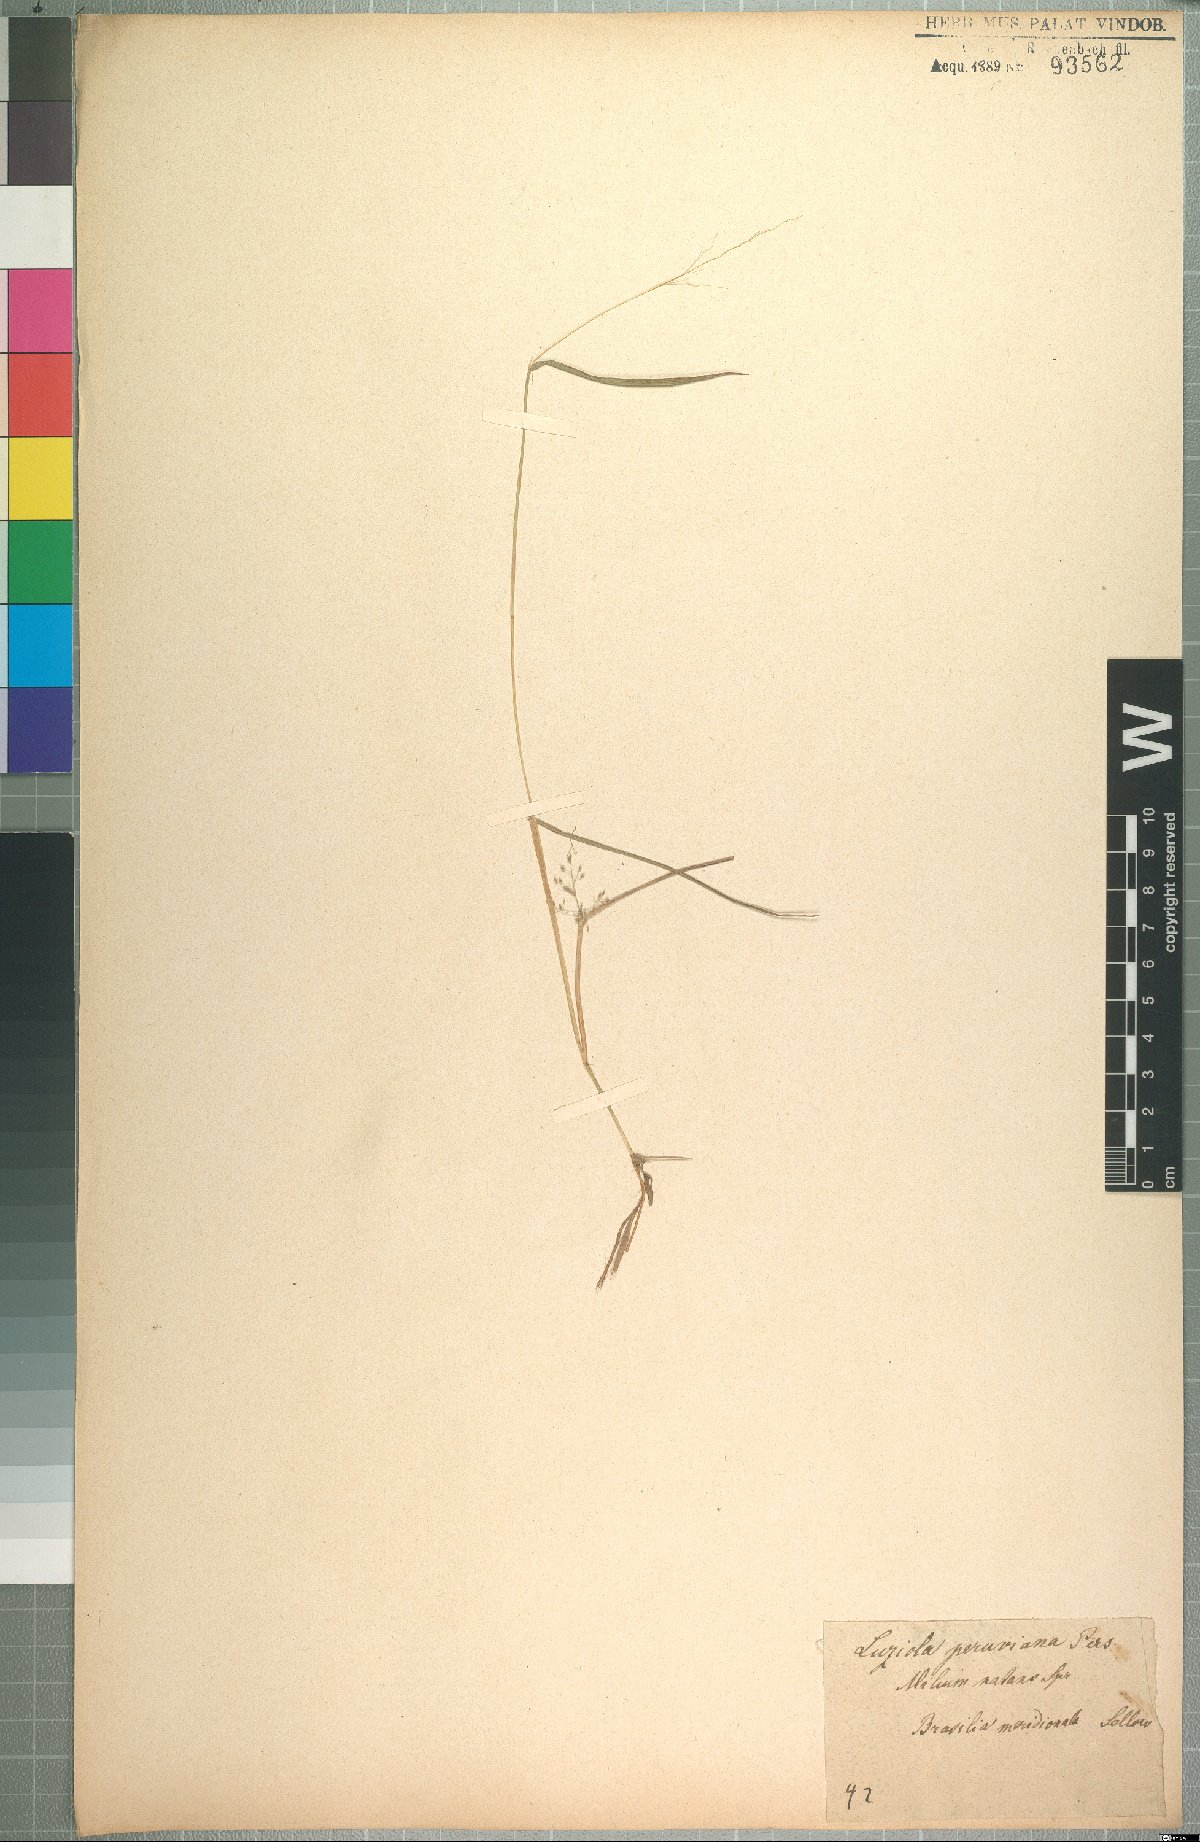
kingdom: Plantae
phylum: Tracheophyta
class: Liliopsida
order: Poales
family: Poaceae
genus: Luziola
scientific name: Luziola peruviana
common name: Peruvian watergrass
